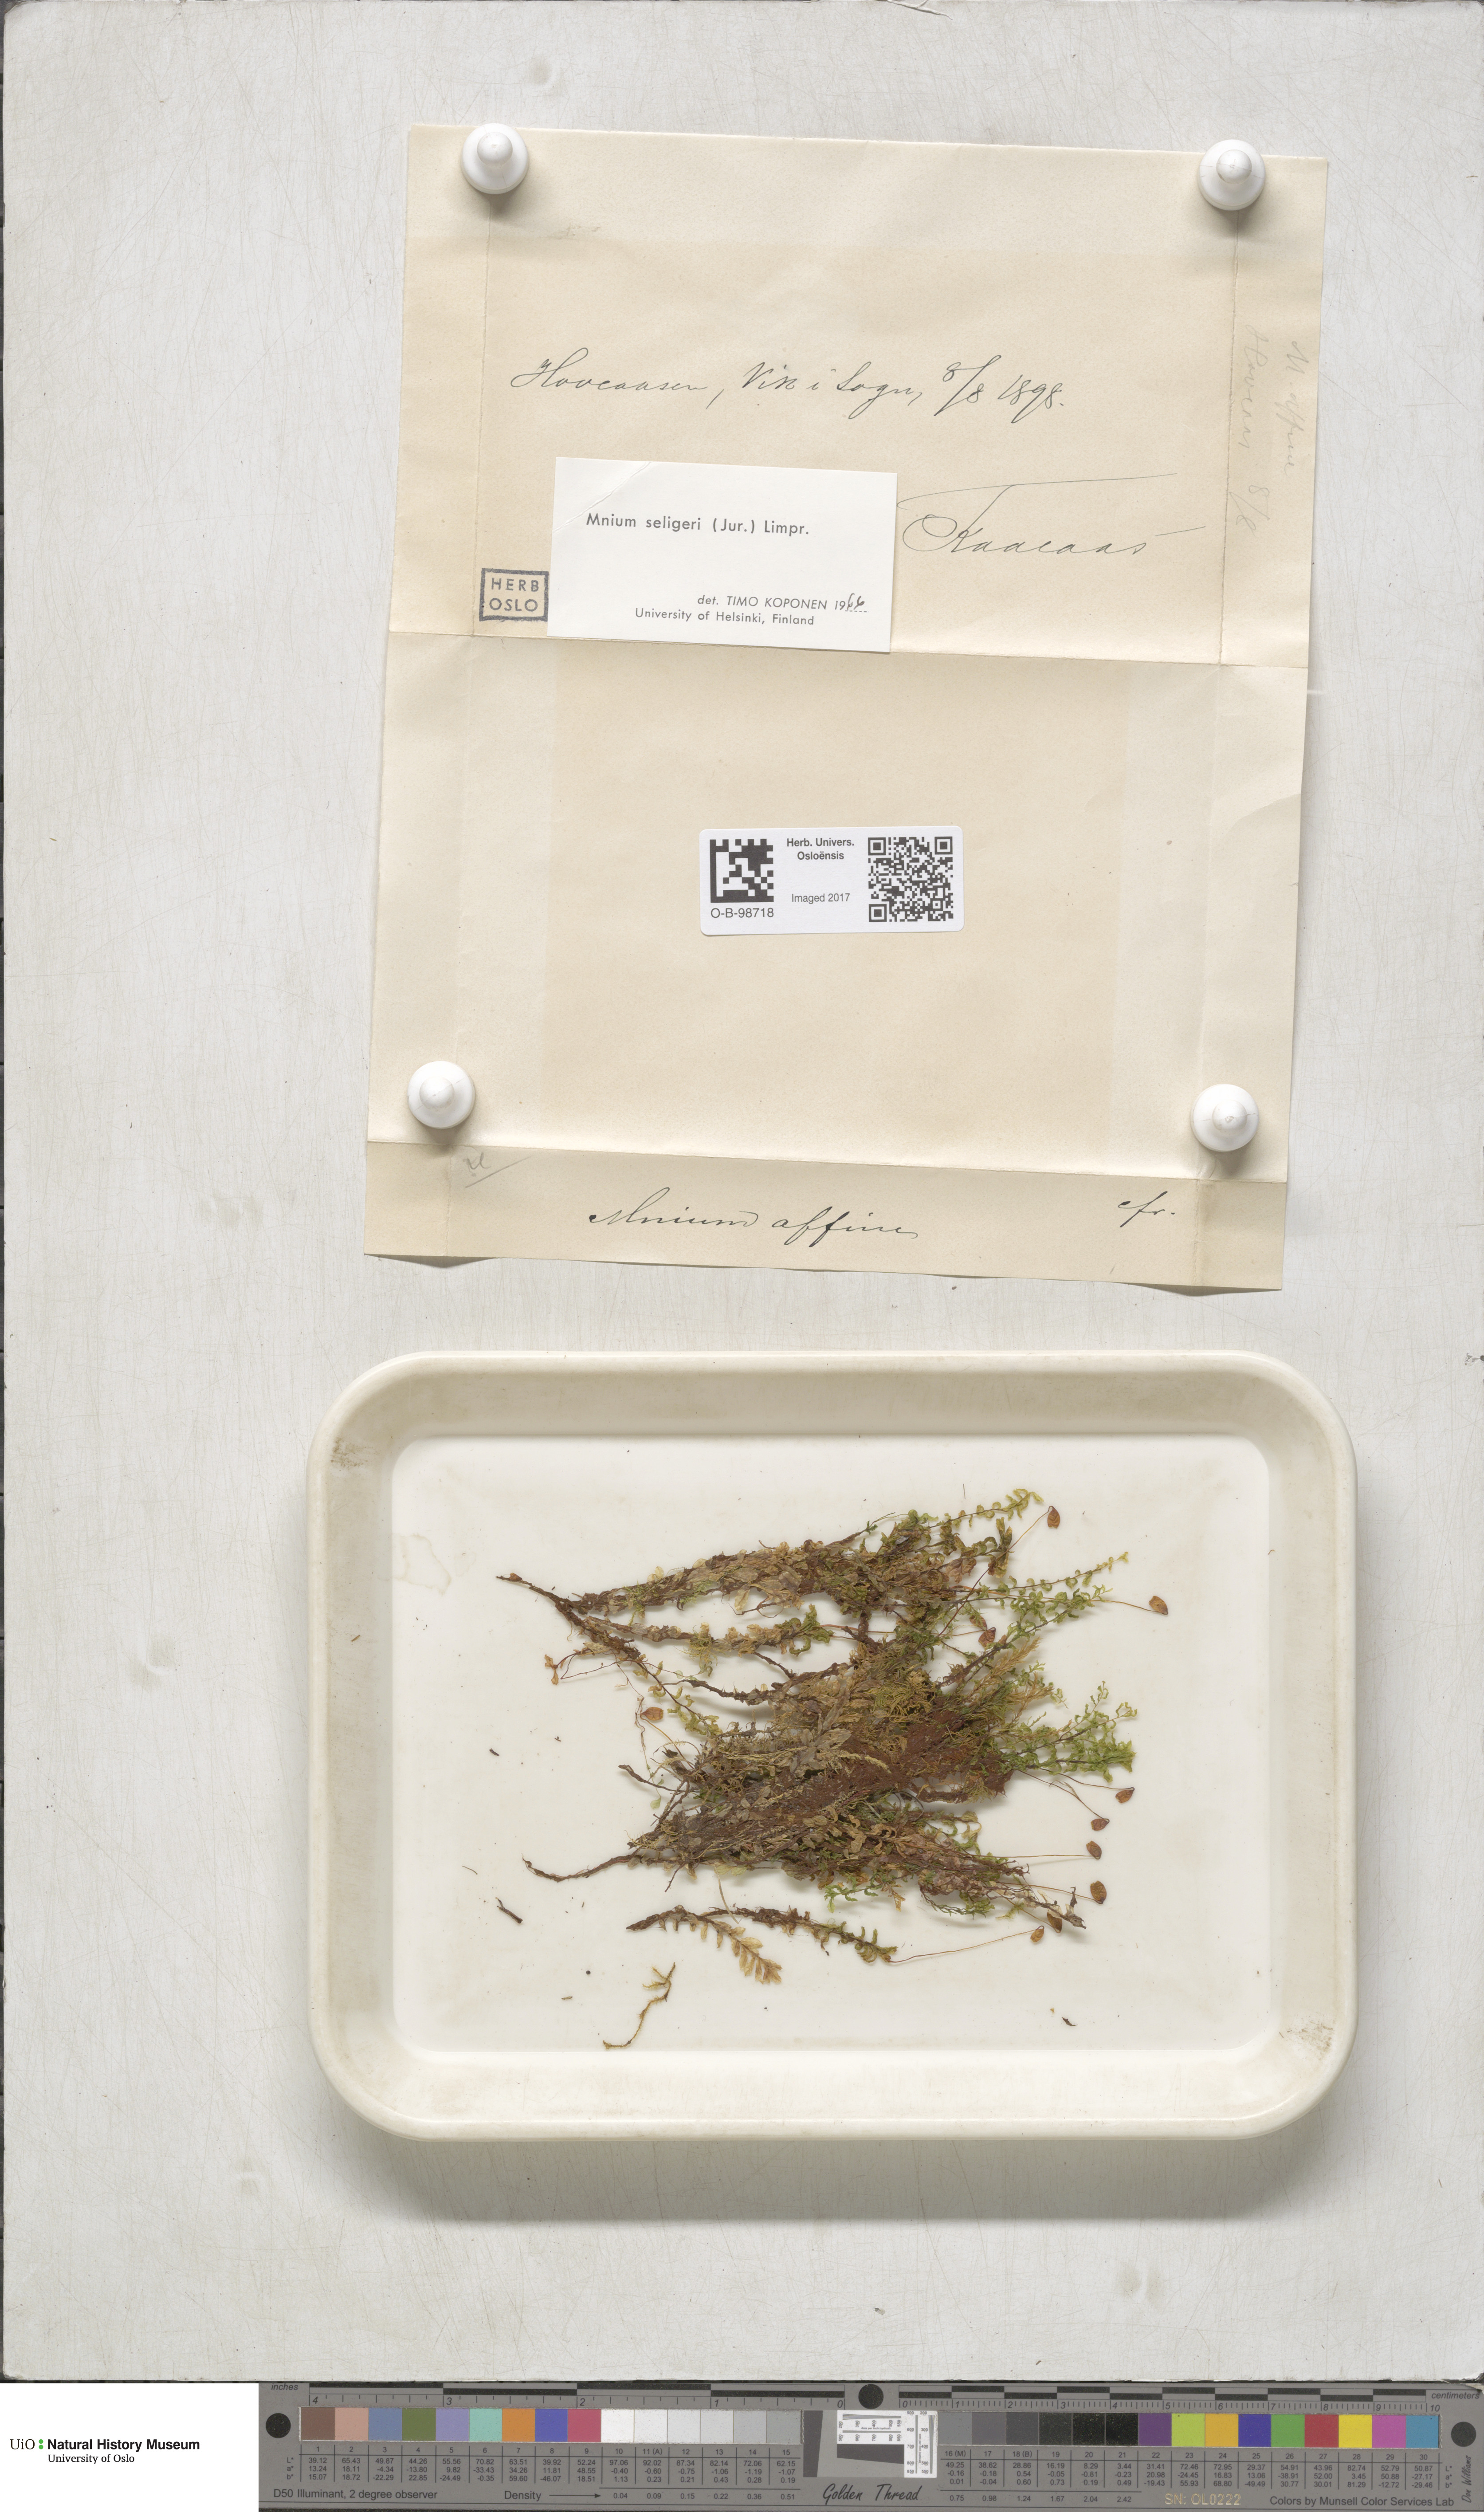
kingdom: Plantae
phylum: Bryophyta
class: Bryopsida
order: Bryales
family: Mniaceae
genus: Plagiomnium
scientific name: Plagiomnium elatum
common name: Tall thyme-moss
